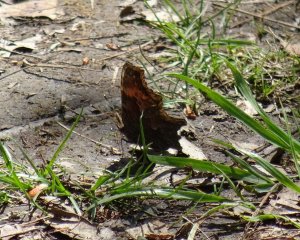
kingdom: Animalia
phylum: Arthropoda
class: Insecta
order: Lepidoptera
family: Nymphalidae
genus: Polygonia
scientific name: Polygonia progne
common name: Gray Comma
